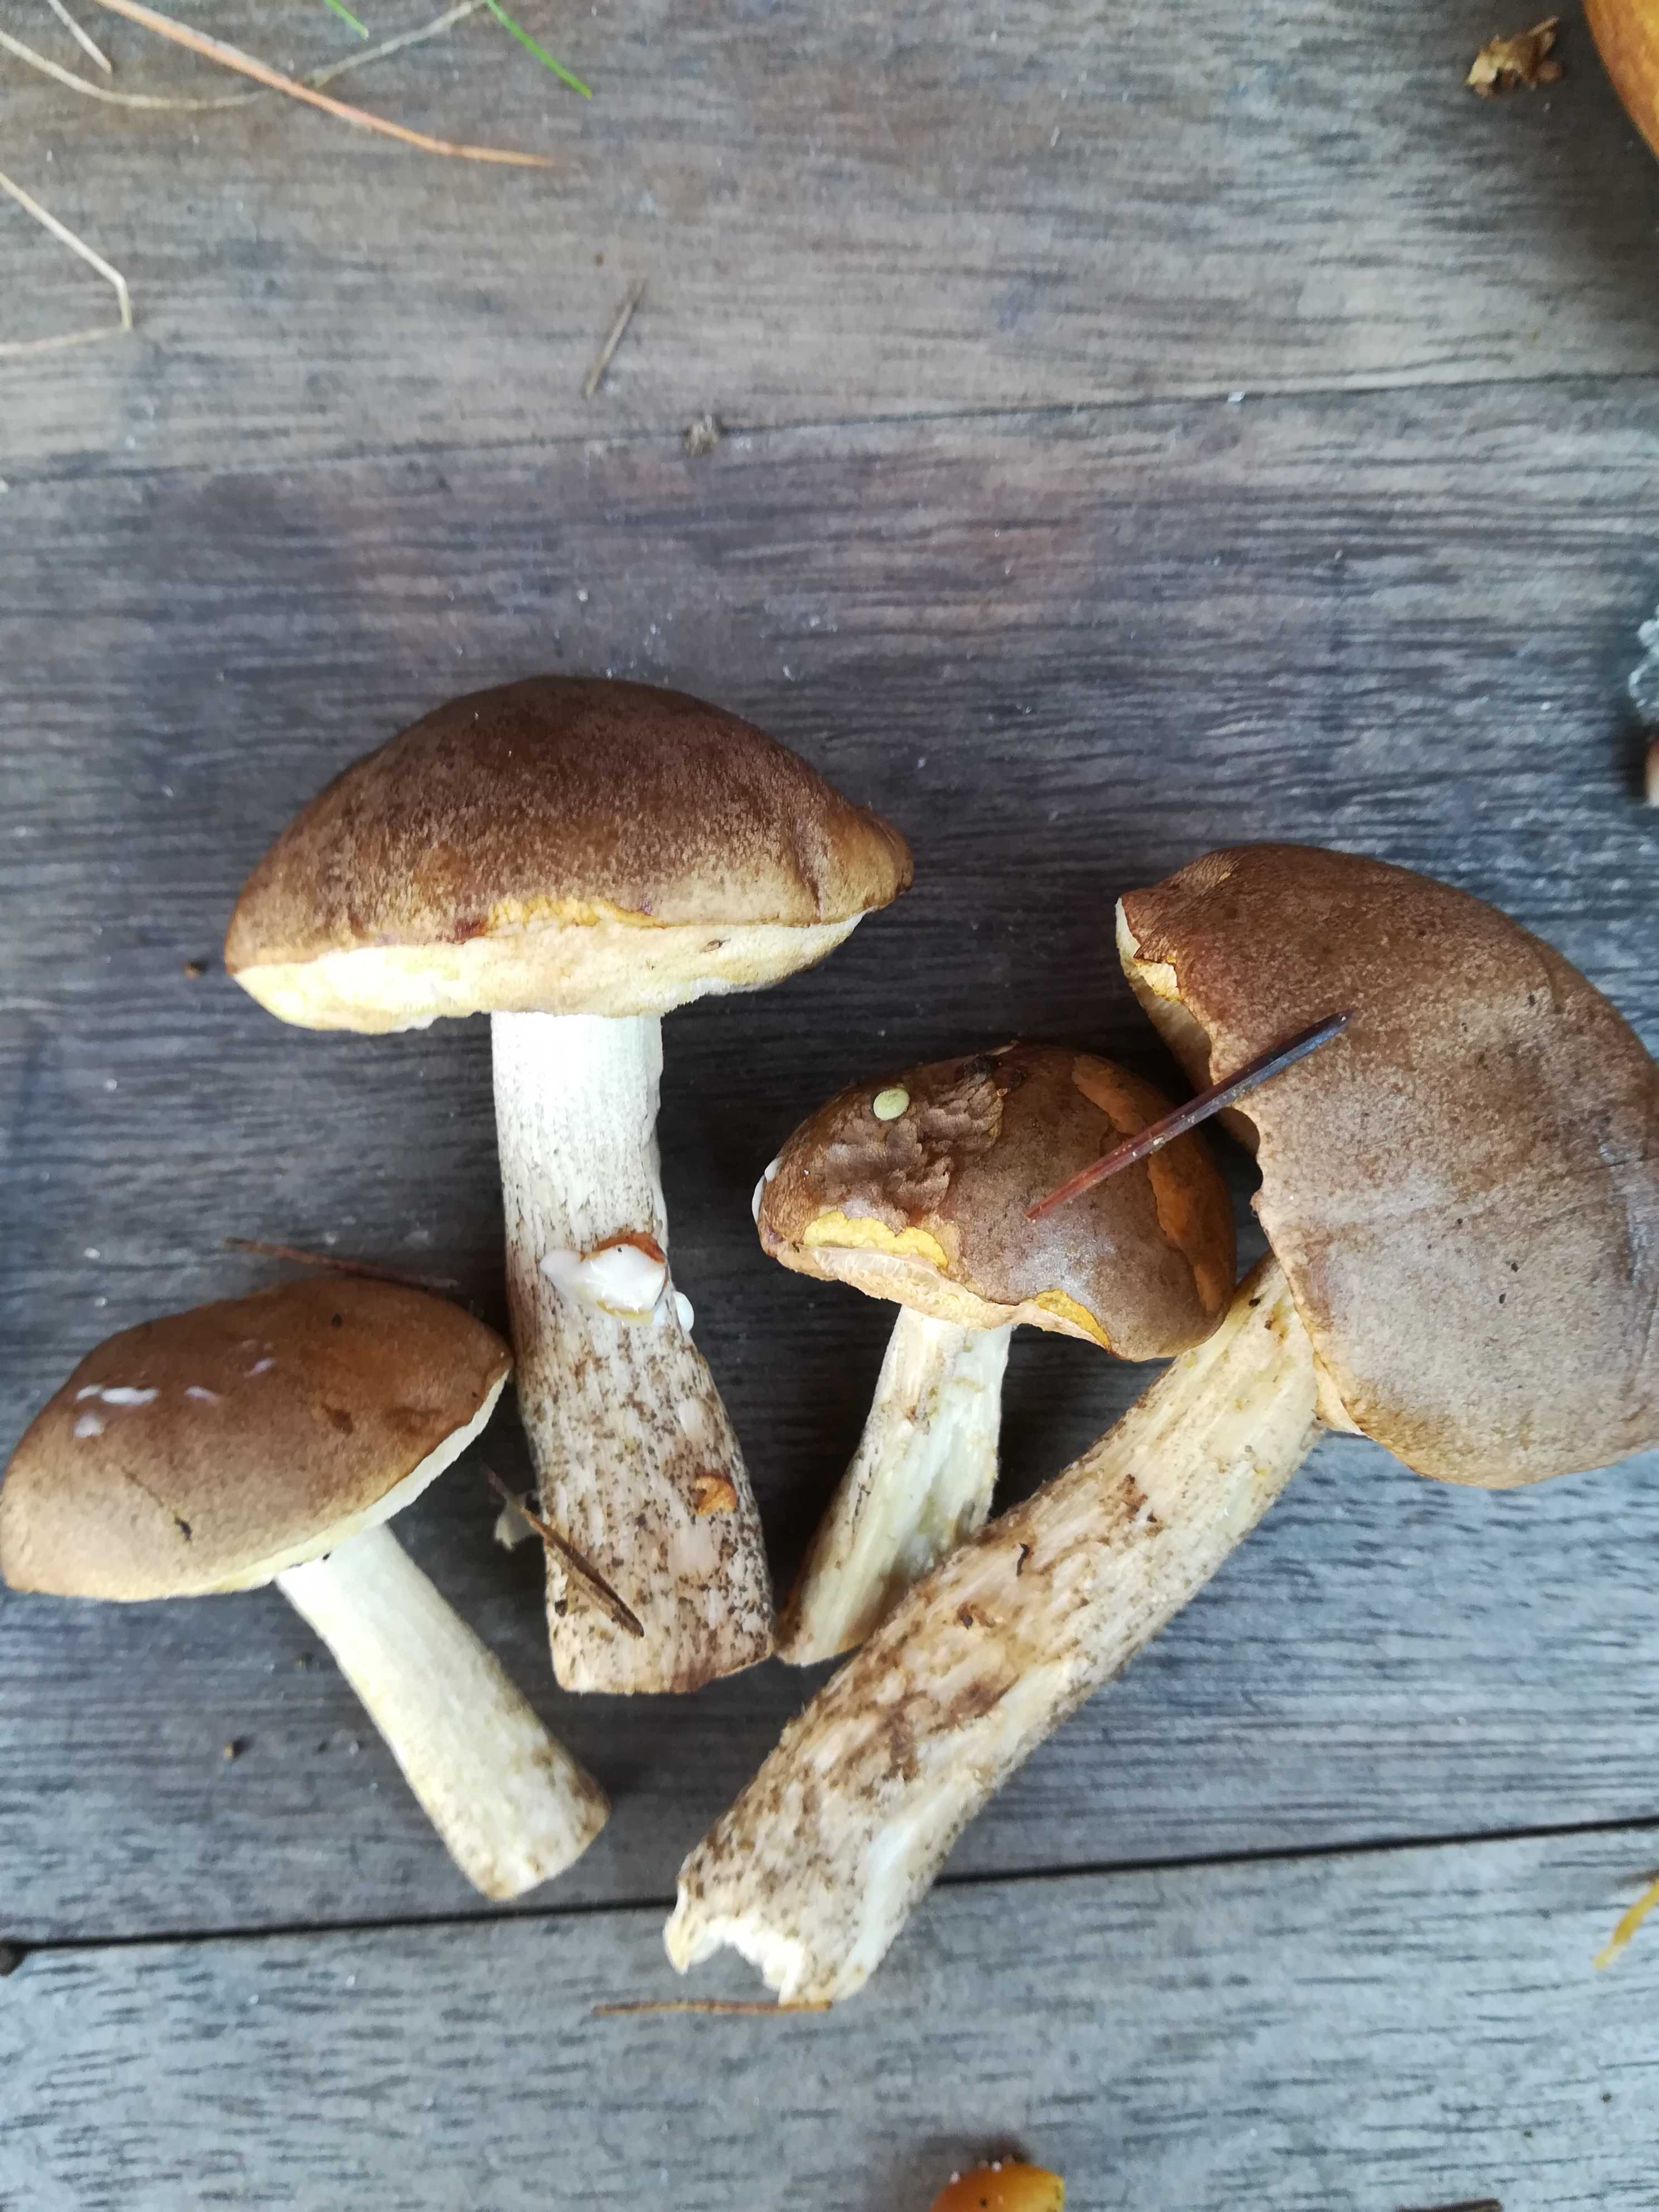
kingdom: Fungi
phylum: Basidiomycota
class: Agaricomycetes
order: Boletales
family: Boletaceae
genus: Leccinum
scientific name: Leccinum
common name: skælrørhat
